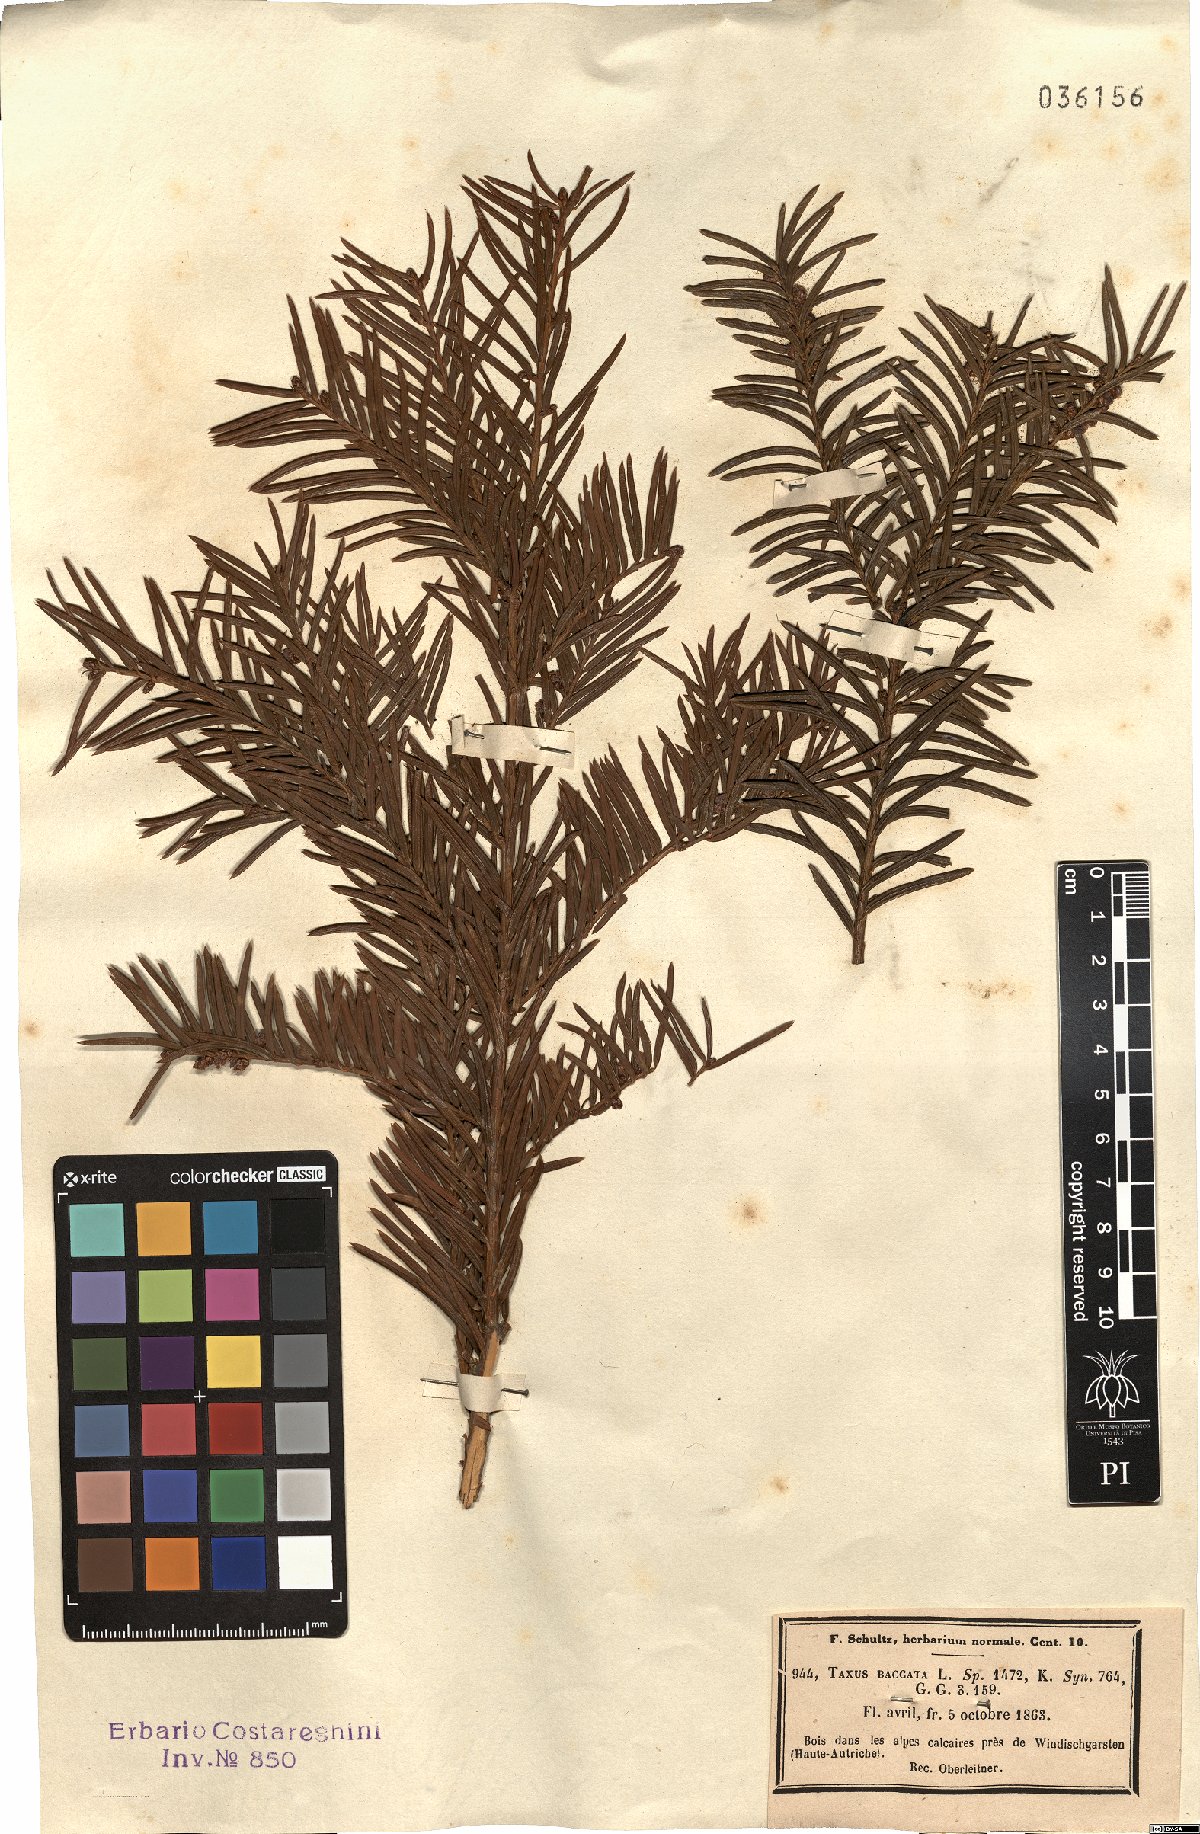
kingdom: Plantae
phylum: Tracheophyta
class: Pinopsida
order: Pinales
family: Taxaceae
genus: Taxus
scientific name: Taxus baccata
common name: Yew
